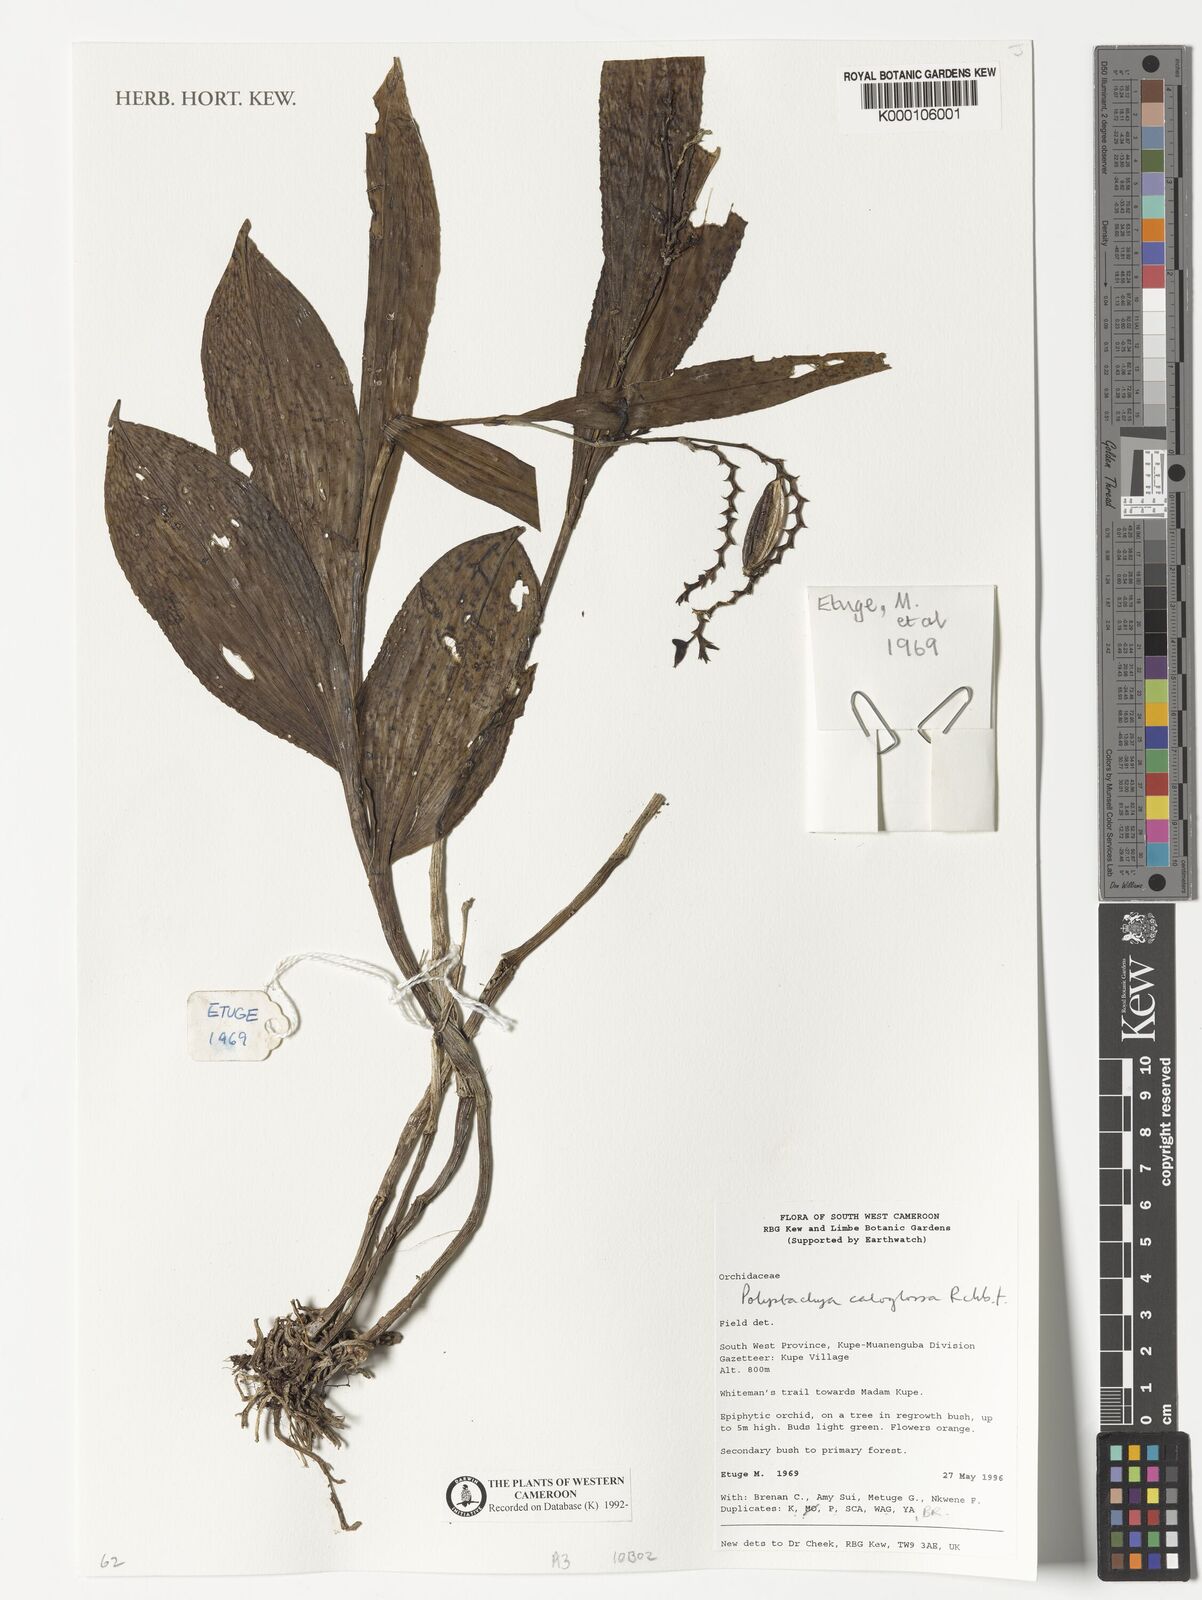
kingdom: Plantae
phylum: Tracheophyta
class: Liliopsida
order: Asparagales
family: Orchidaceae
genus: Polystachya
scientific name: Polystachya caloglossa
